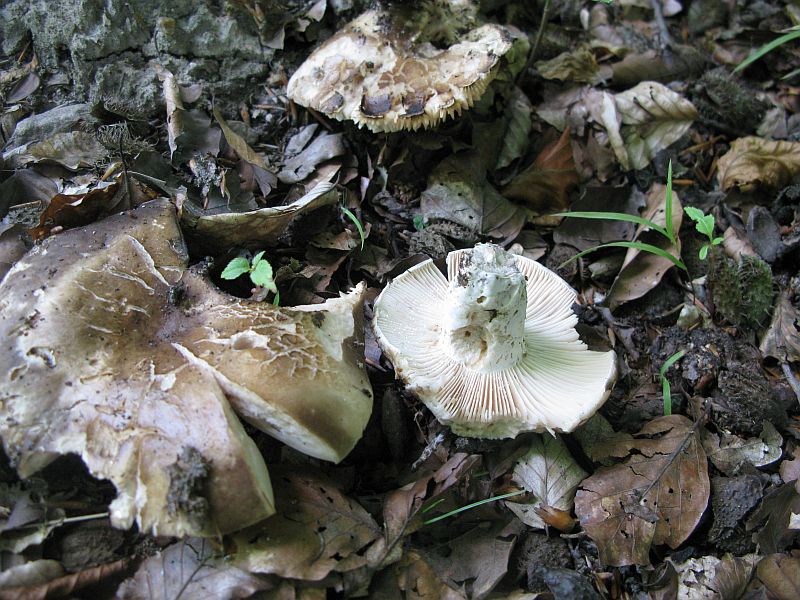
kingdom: Fungi
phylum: Basidiomycota
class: Agaricomycetes
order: Russulales
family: Russulaceae
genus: Russula
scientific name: Russula adusta
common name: sværtende skørhat
